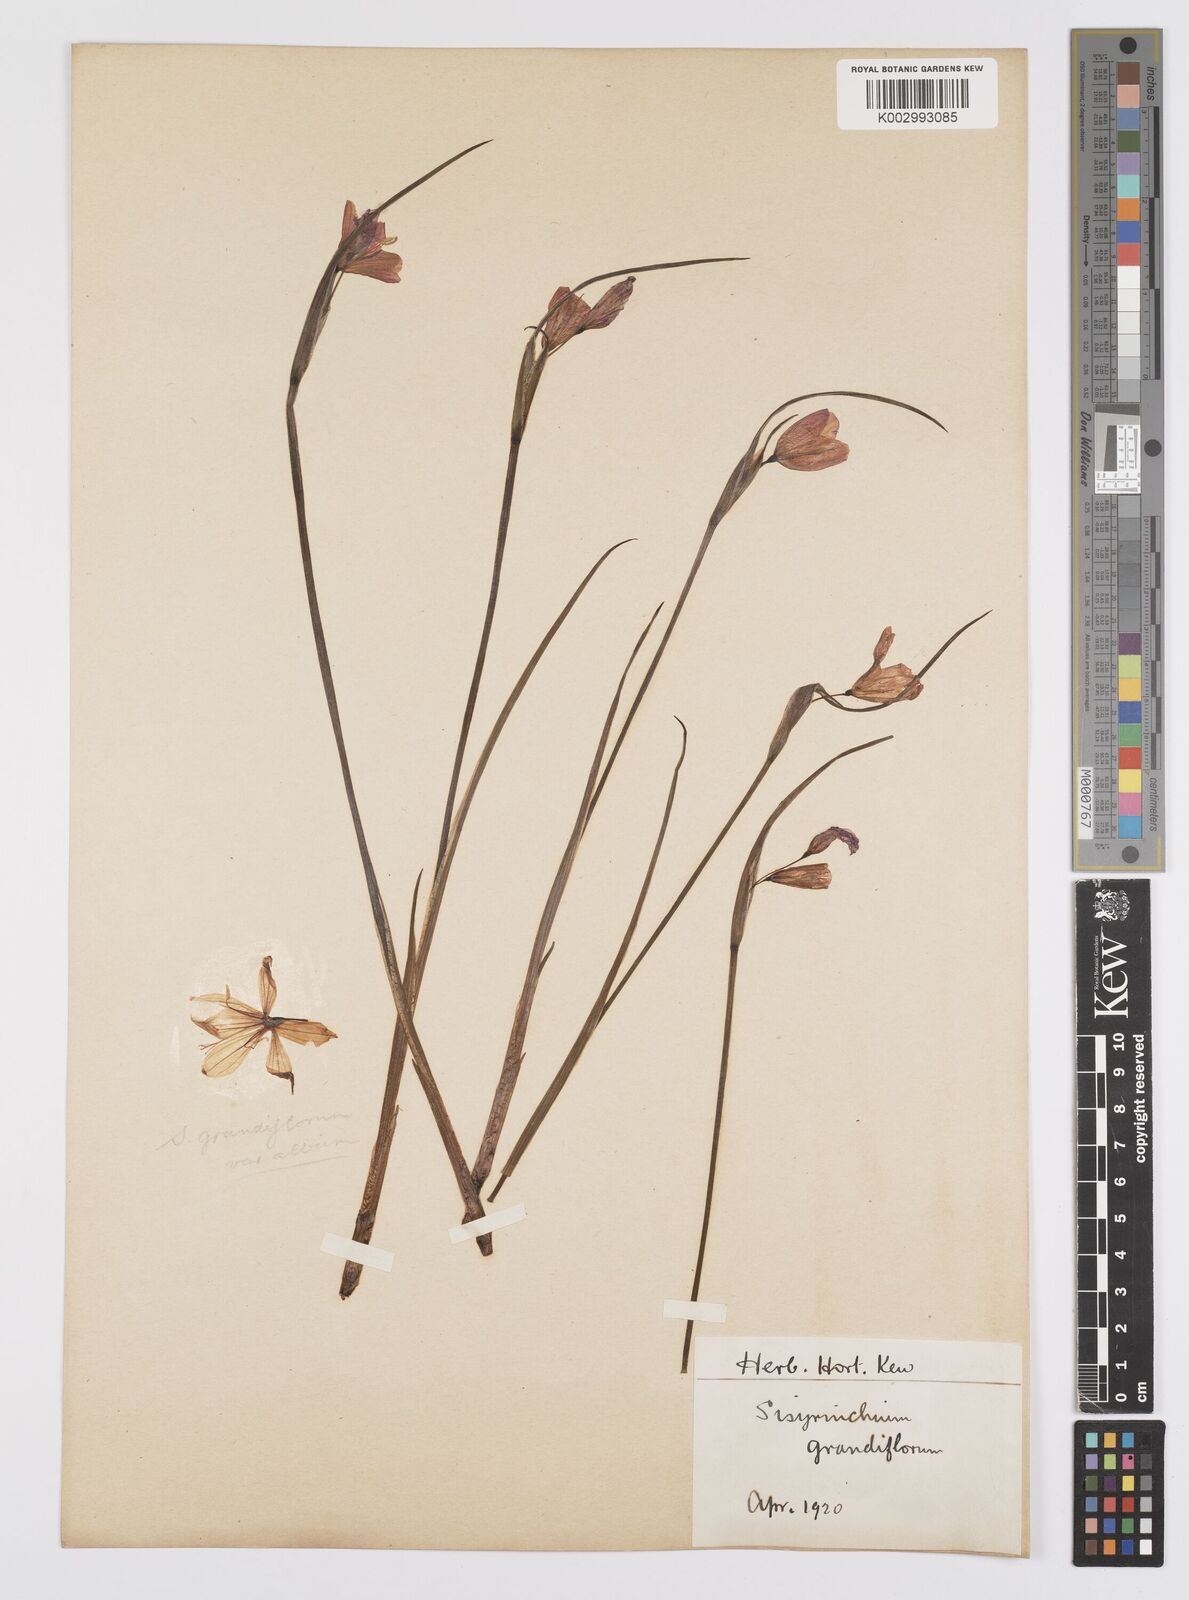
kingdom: Plantae
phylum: Tracheophyta
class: Liliopsida
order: Asparagales
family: Iridaceae
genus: Sisyrinchium
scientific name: Sisyrinchium graminifolium
